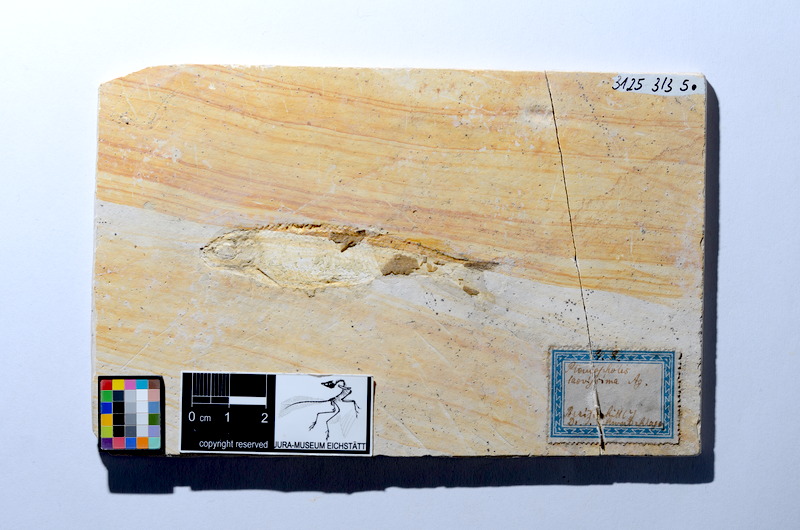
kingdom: Animalia
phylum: Chordata
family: Pleuropholidae
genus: Pleuropholis
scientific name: Pleuropholis laevissima
